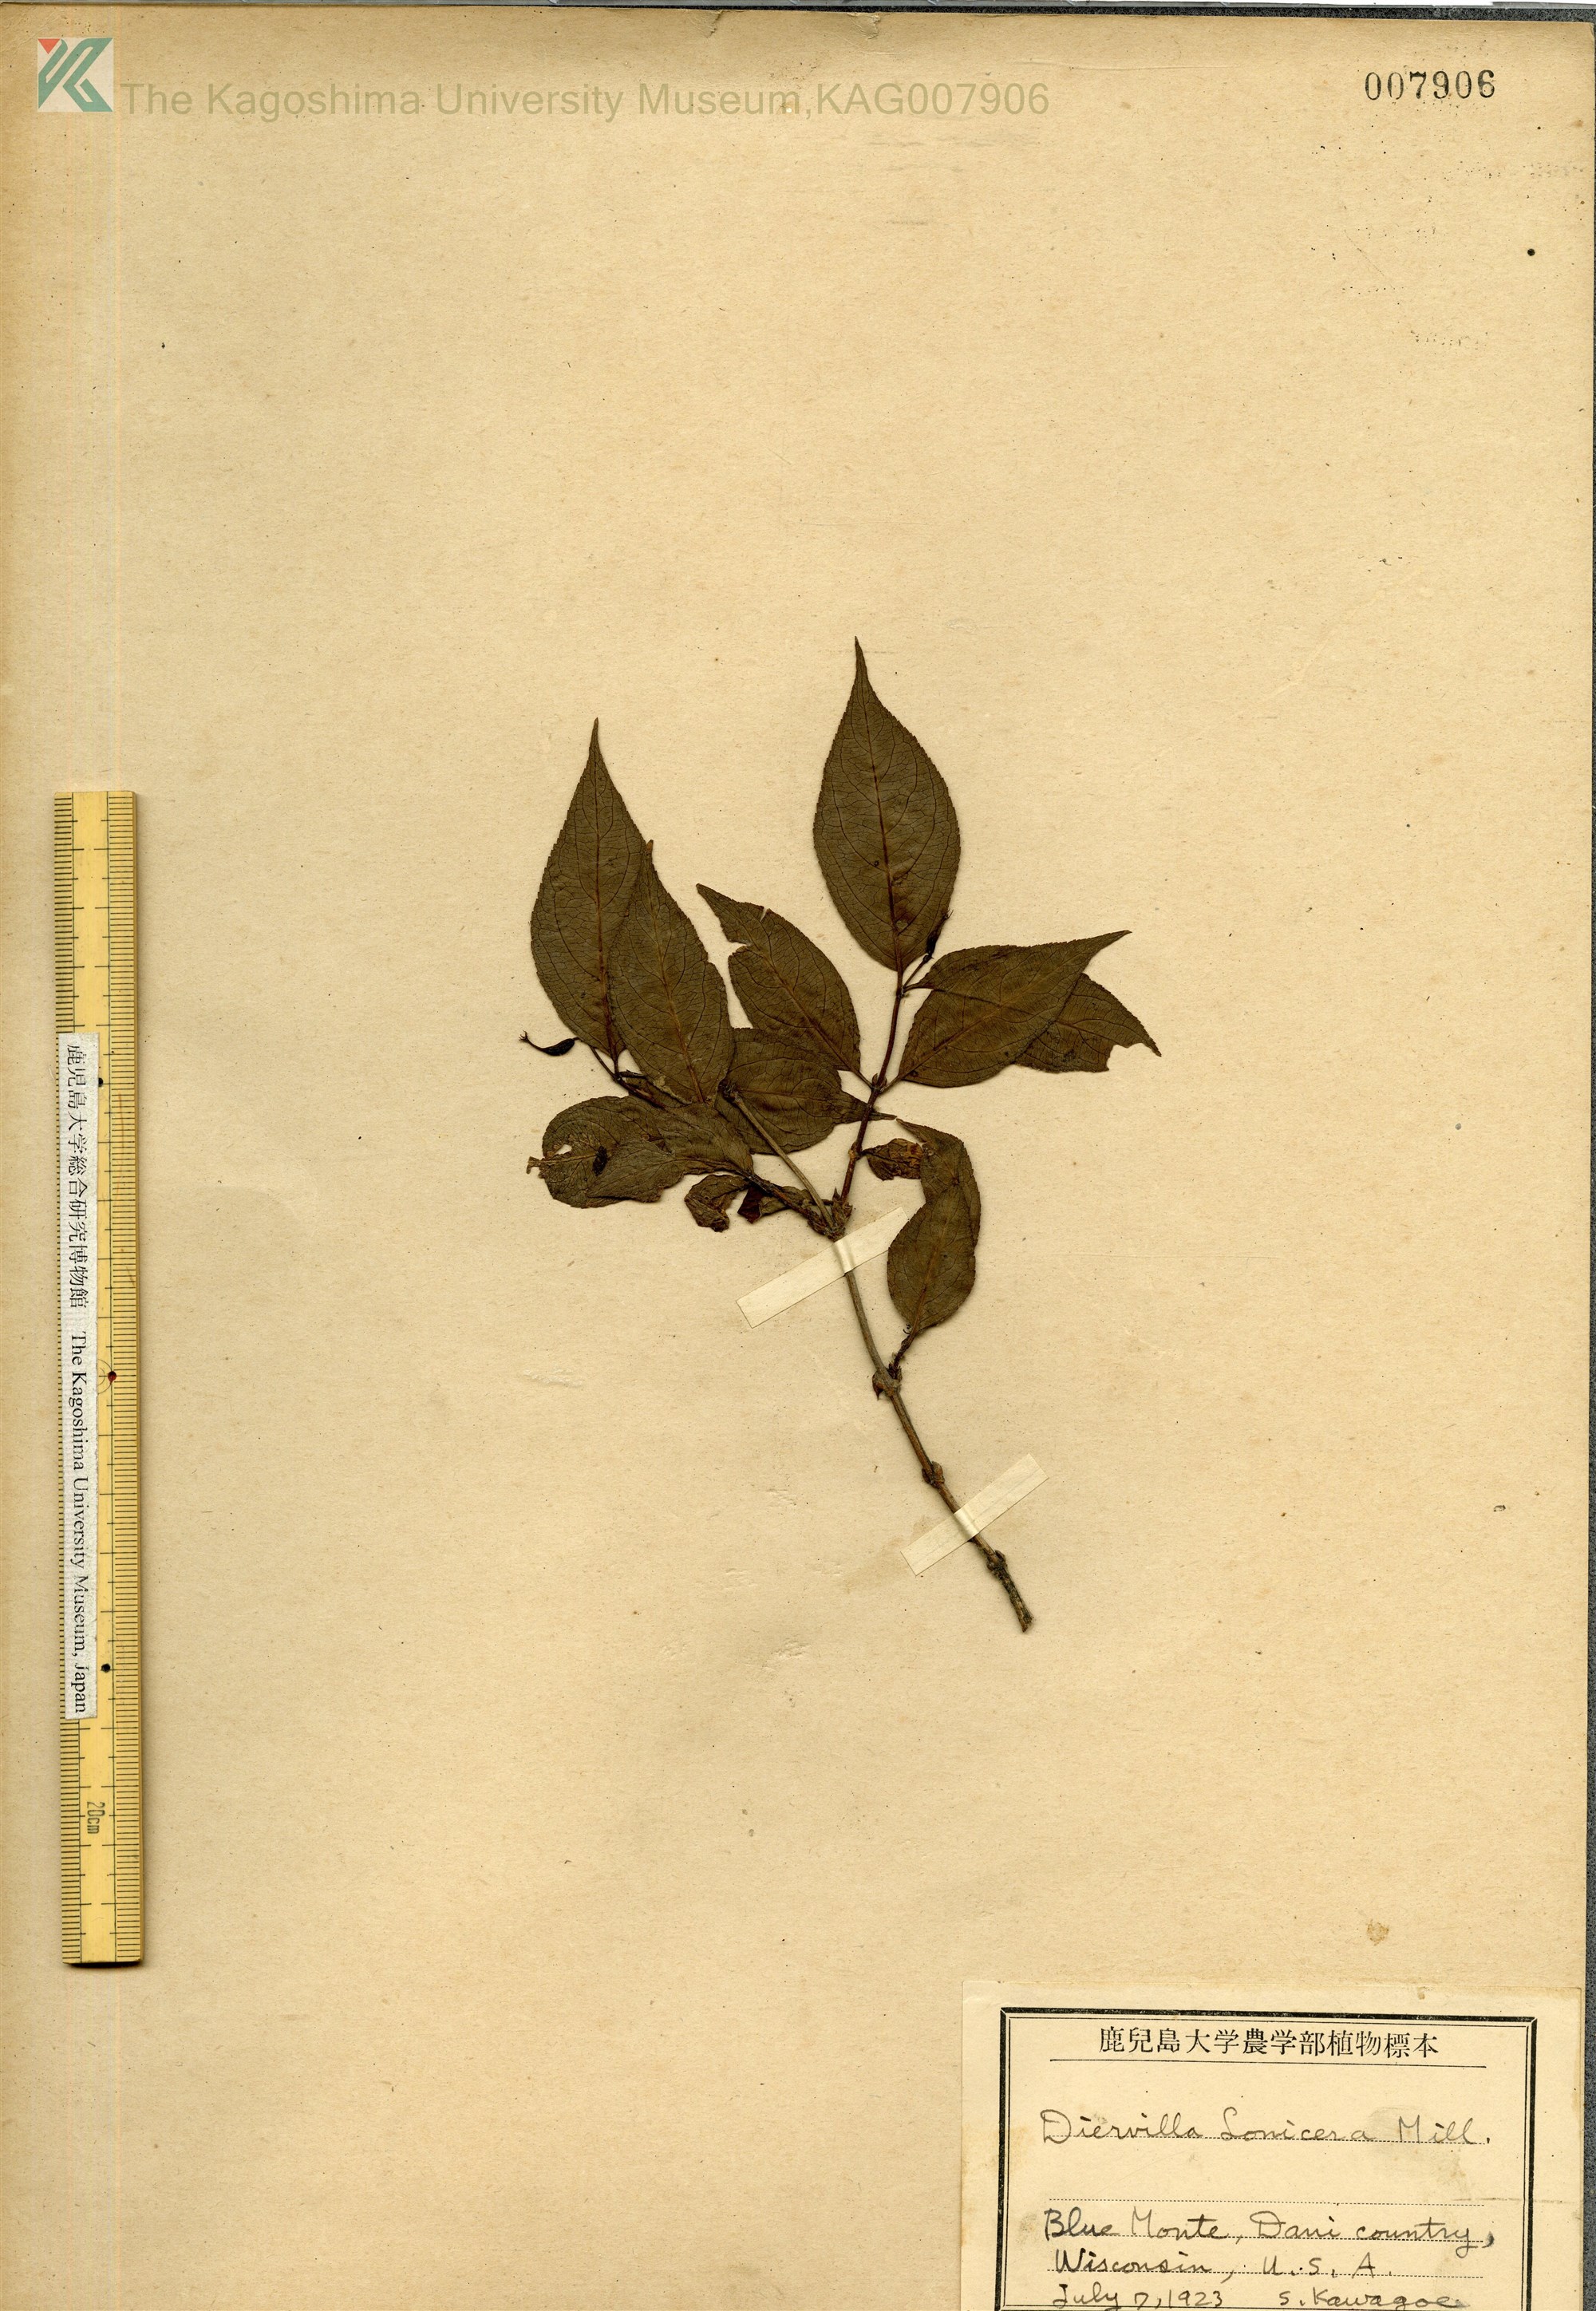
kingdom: Plantae
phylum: Tracheophyta
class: Magnoliopsida
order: Dipsacales
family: Caprifoliaceae
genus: Diervilla
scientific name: Diervilla
